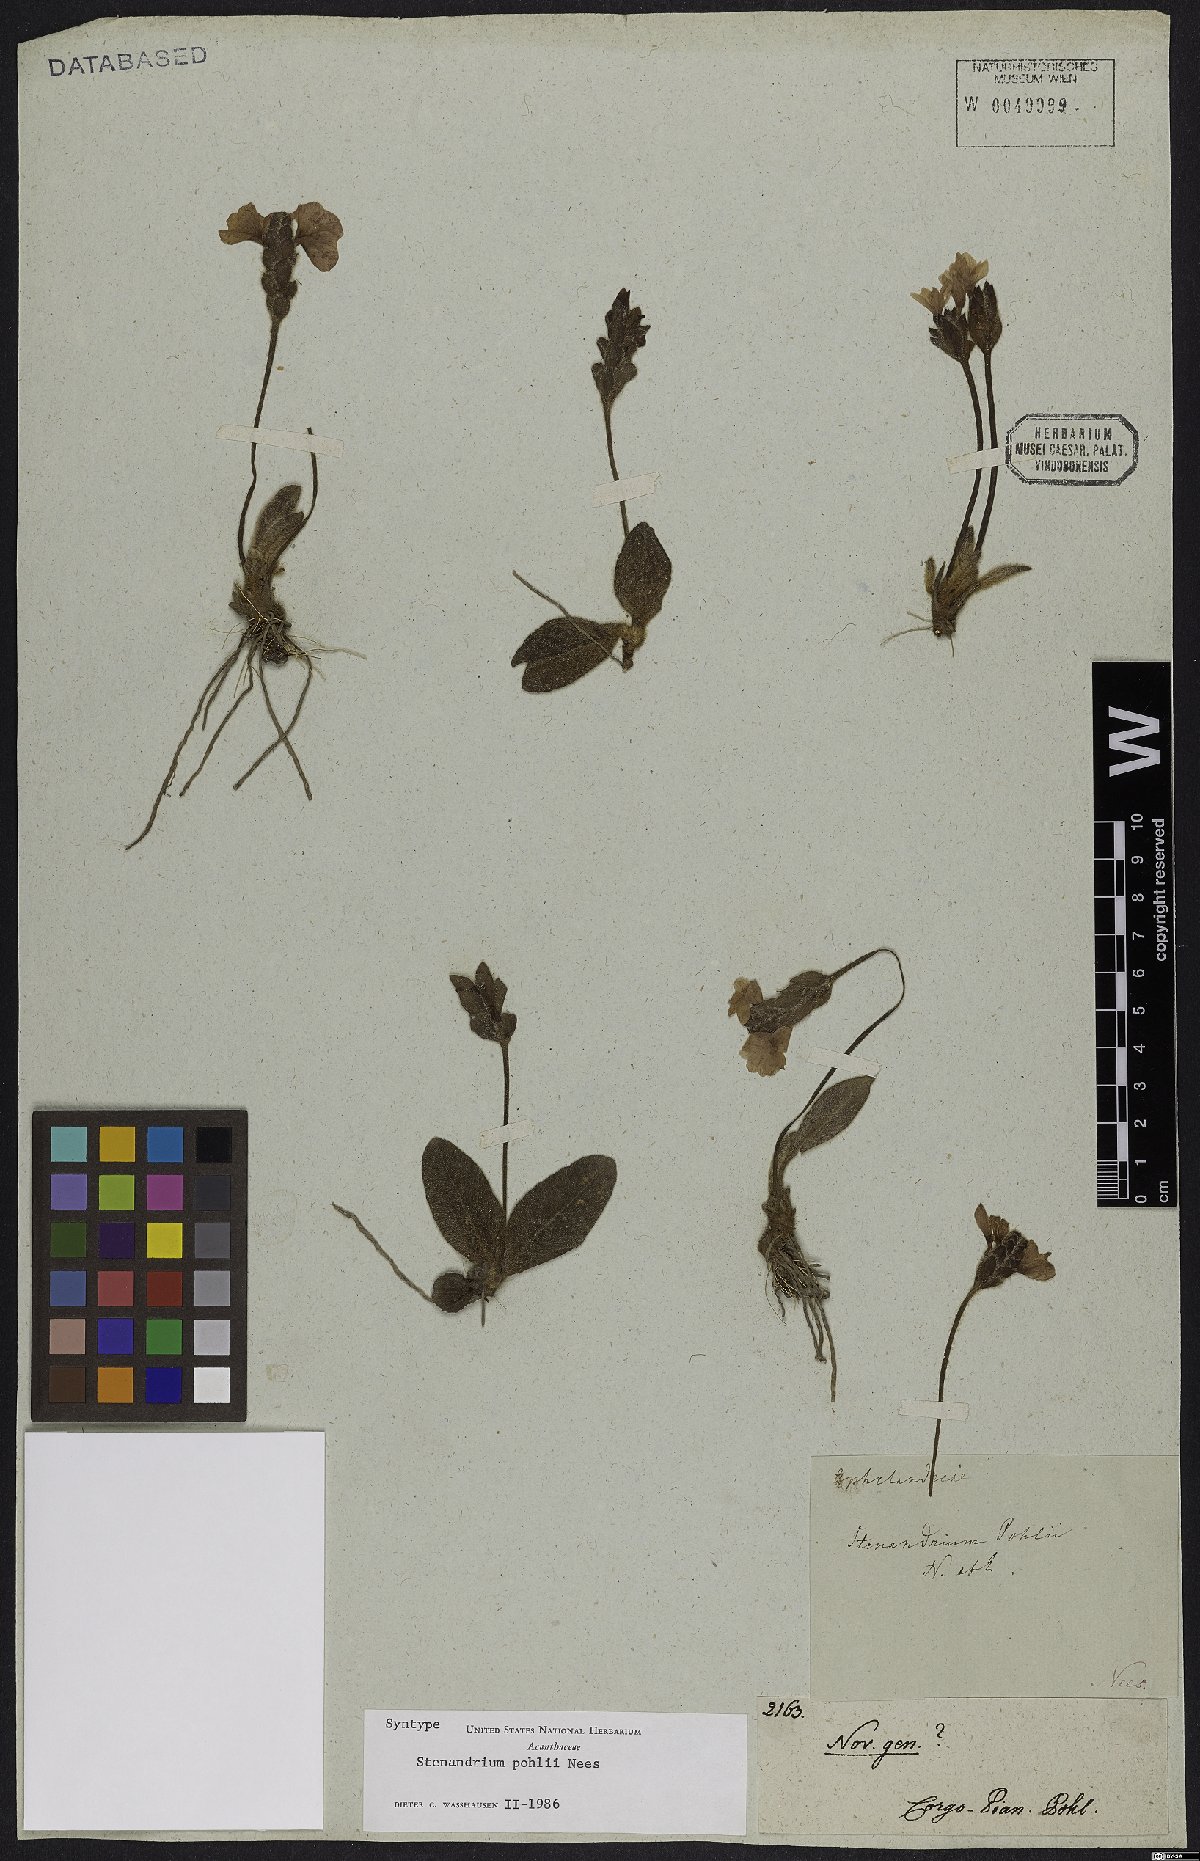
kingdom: Plantae
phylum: Tracheophyta
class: Magnoliopsida
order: Lamiales
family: Acanthaceae
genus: Stenandrium
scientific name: Stenandrium pohlii
